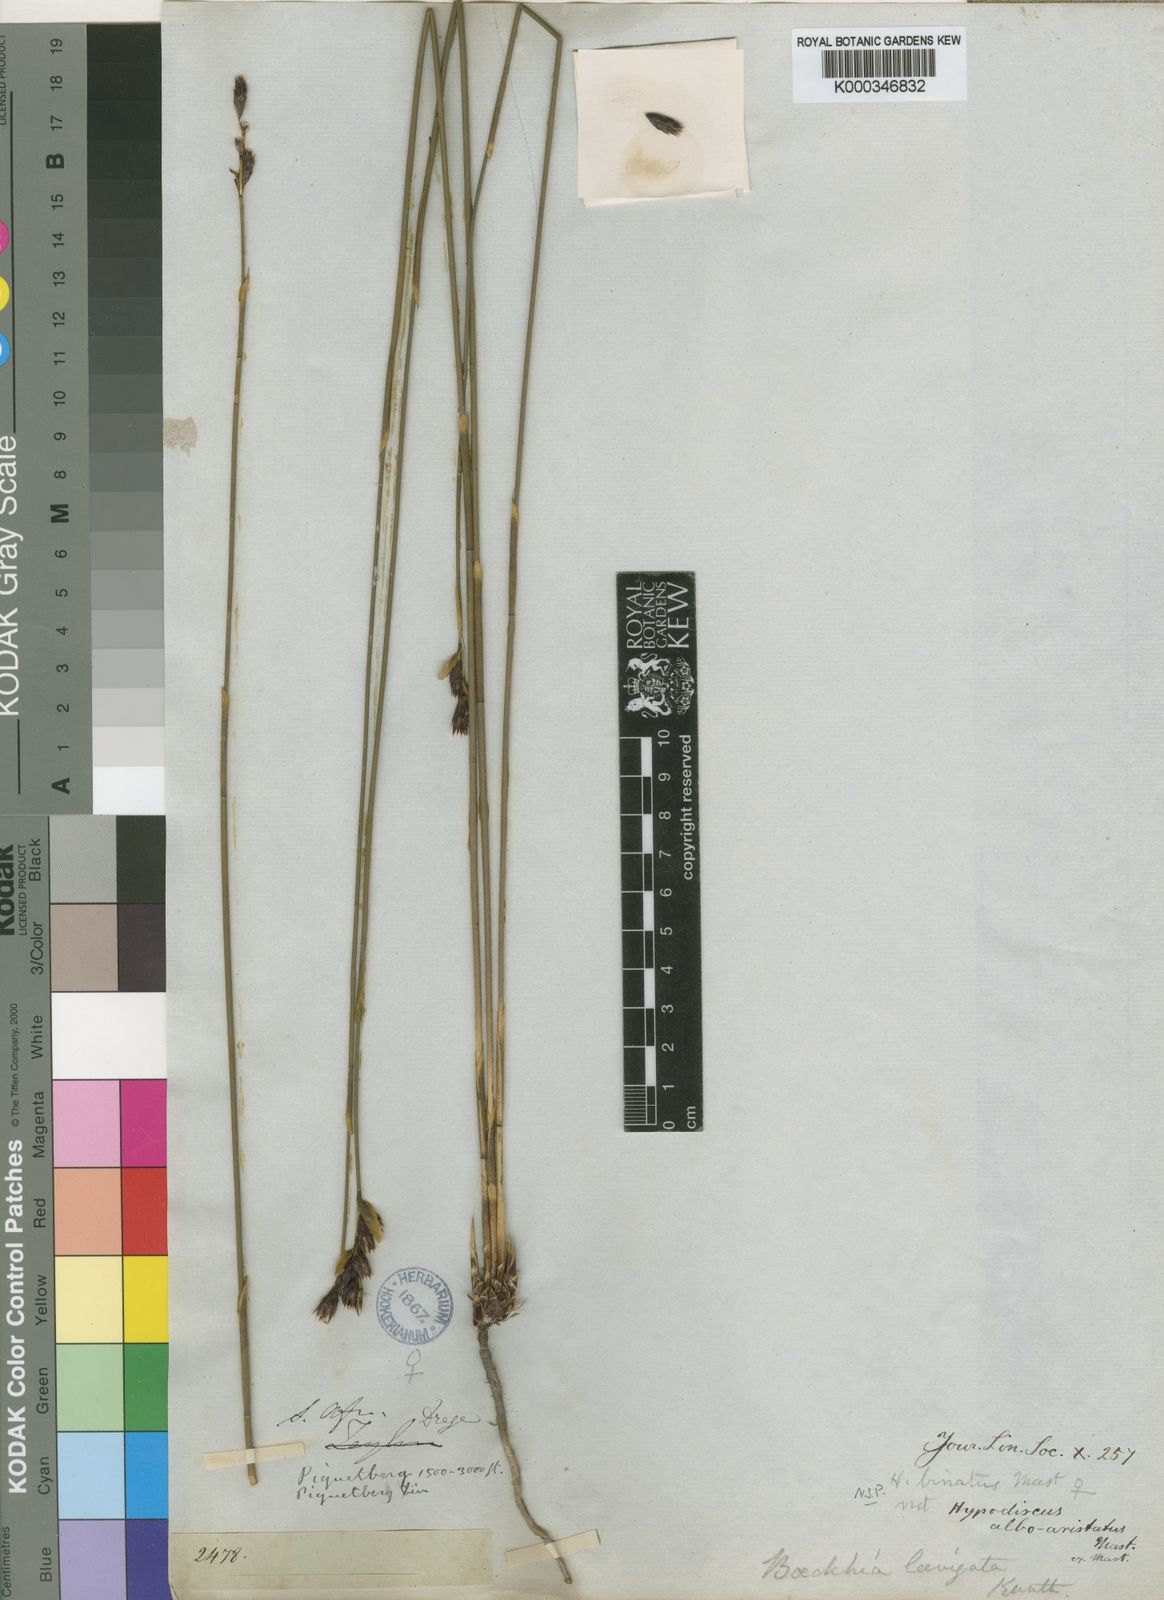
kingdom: Plantae
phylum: Tracheophyta
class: Liliopsida
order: Poales
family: Restionaceae
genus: Hypodiscus
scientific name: Hypodiscus laevigatus
